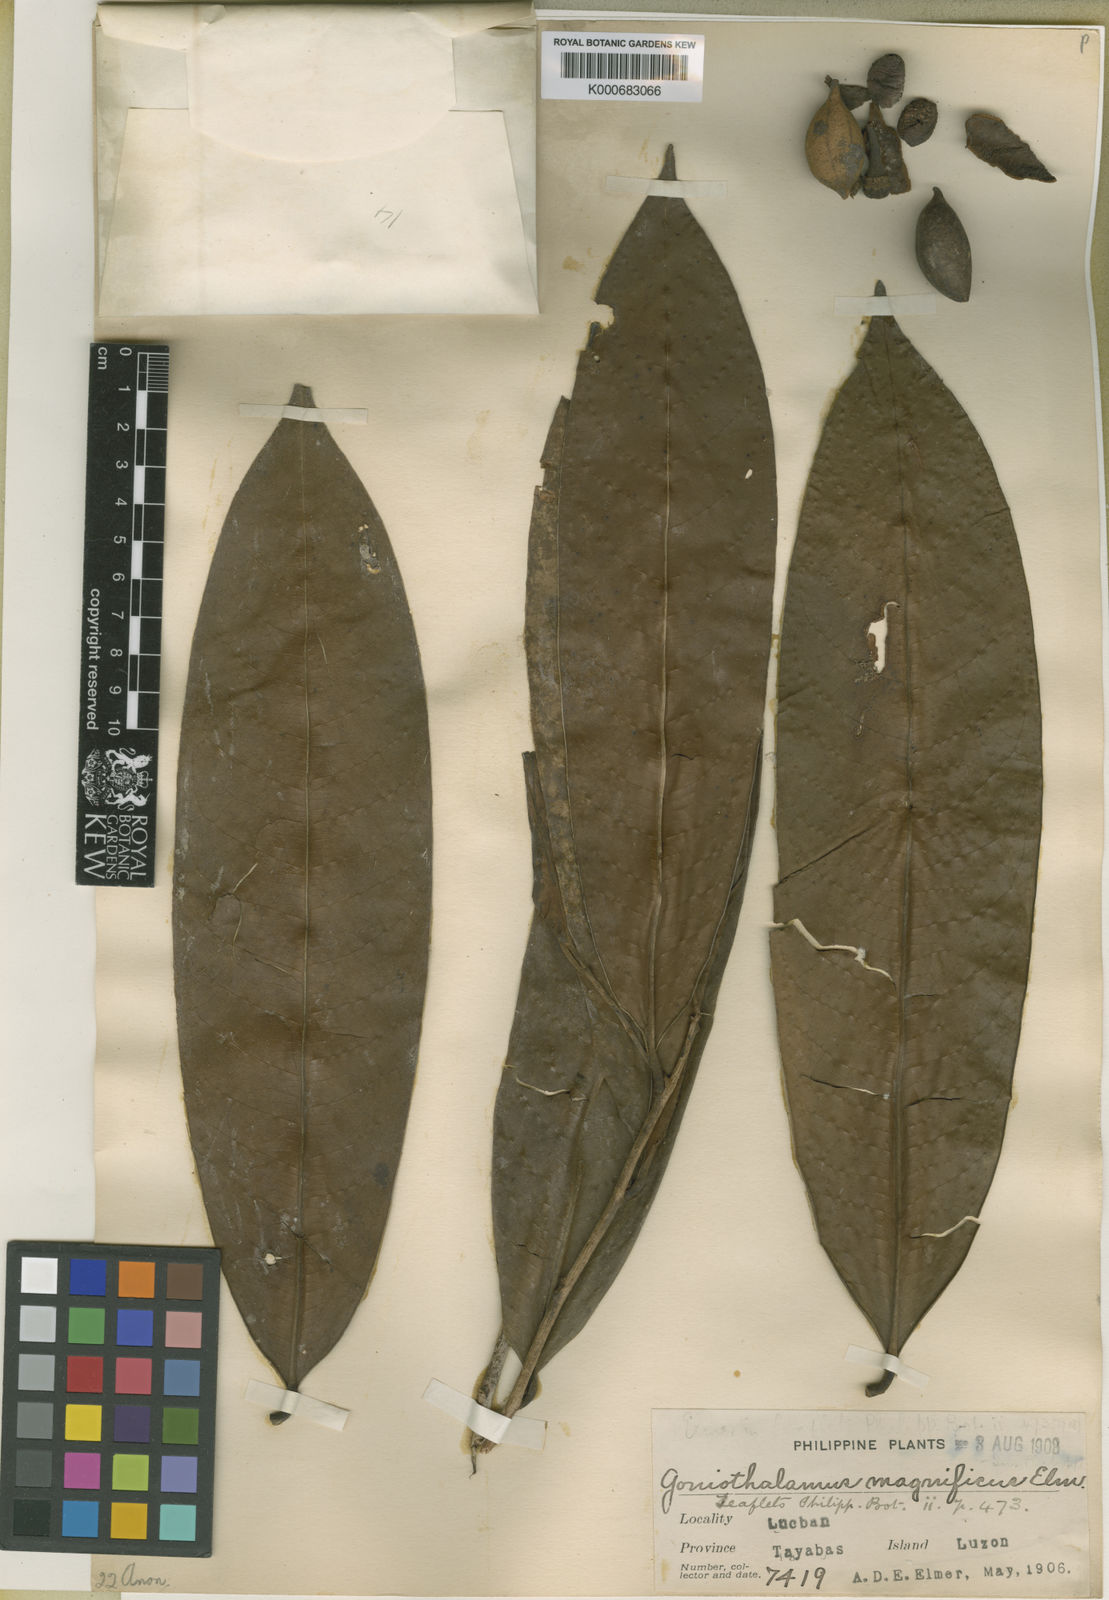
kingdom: Plantae
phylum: Tracheophyta
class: Magnoliopsida
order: Magnoliales
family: Annonaceae
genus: Goniothalamus
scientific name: Goniothalamus philippinensis
